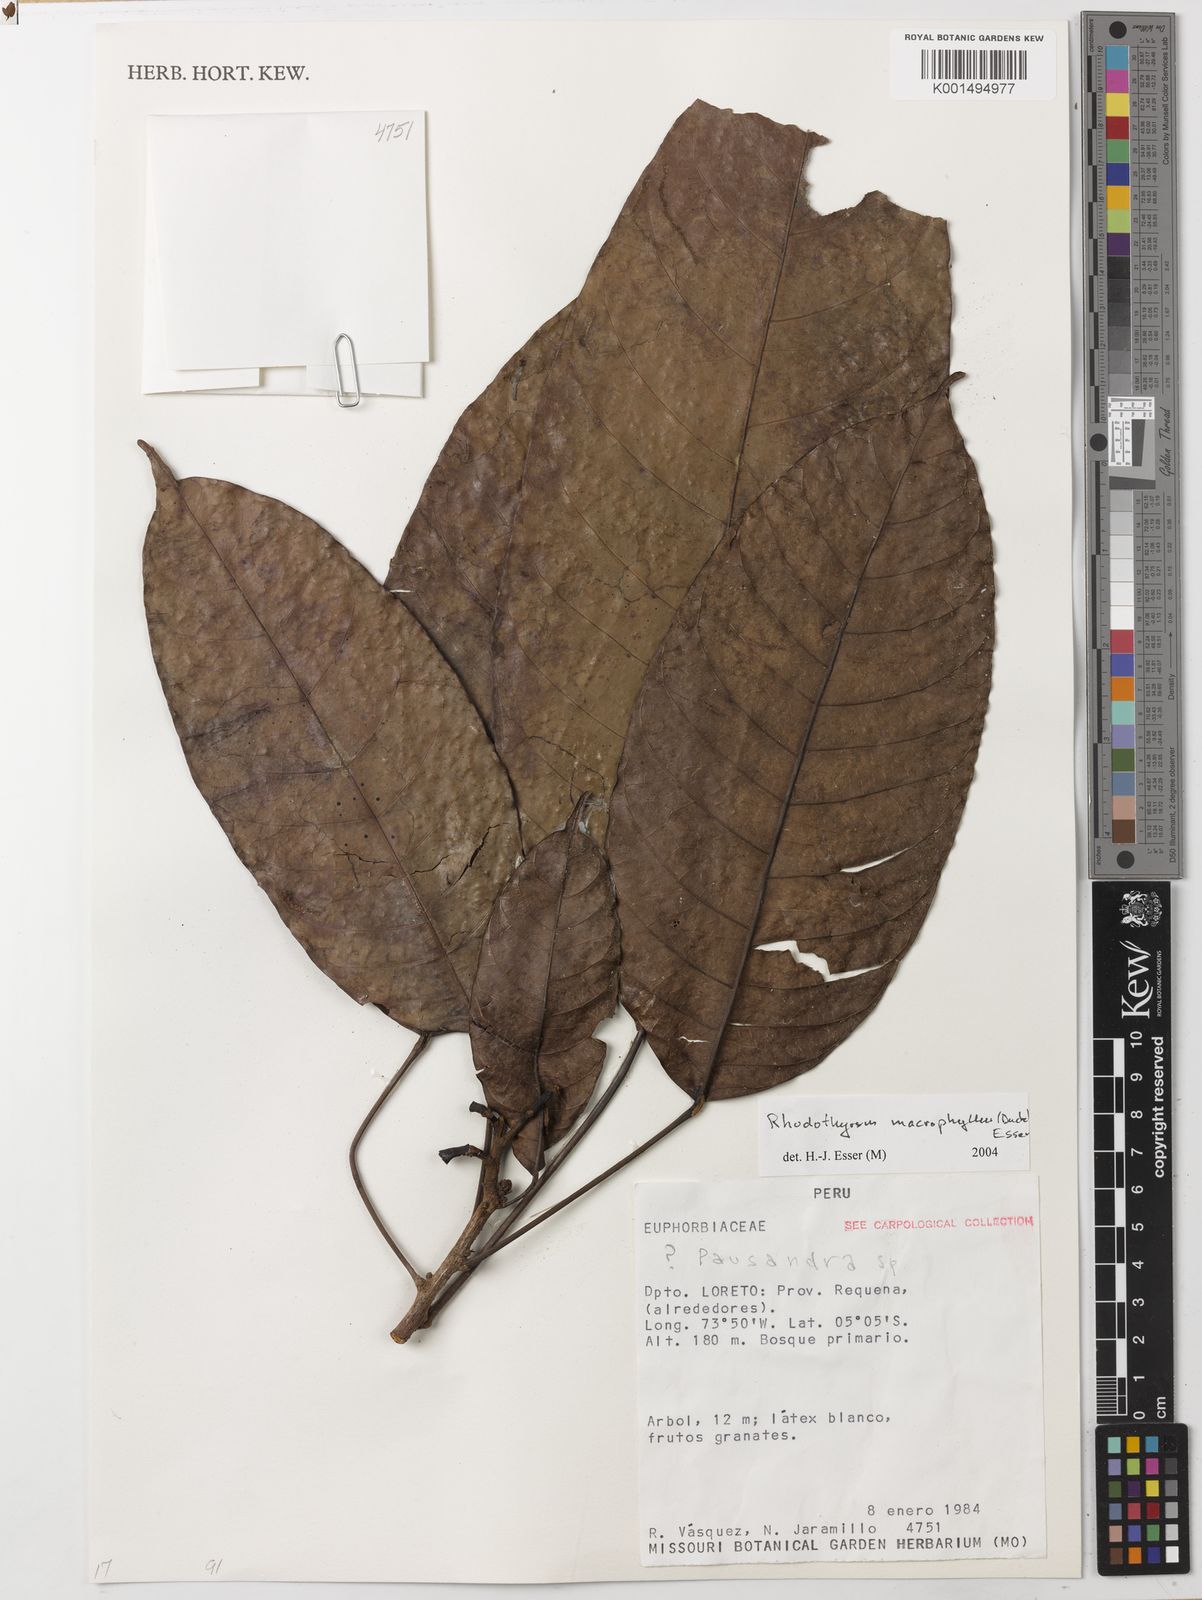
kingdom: Plantae
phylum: Tracheophyta
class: Magnoliopsida
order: Malpighiales
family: Euphorbiaceae
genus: Rhodothyrsus
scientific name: Rhodothyrsus macrophyllus
